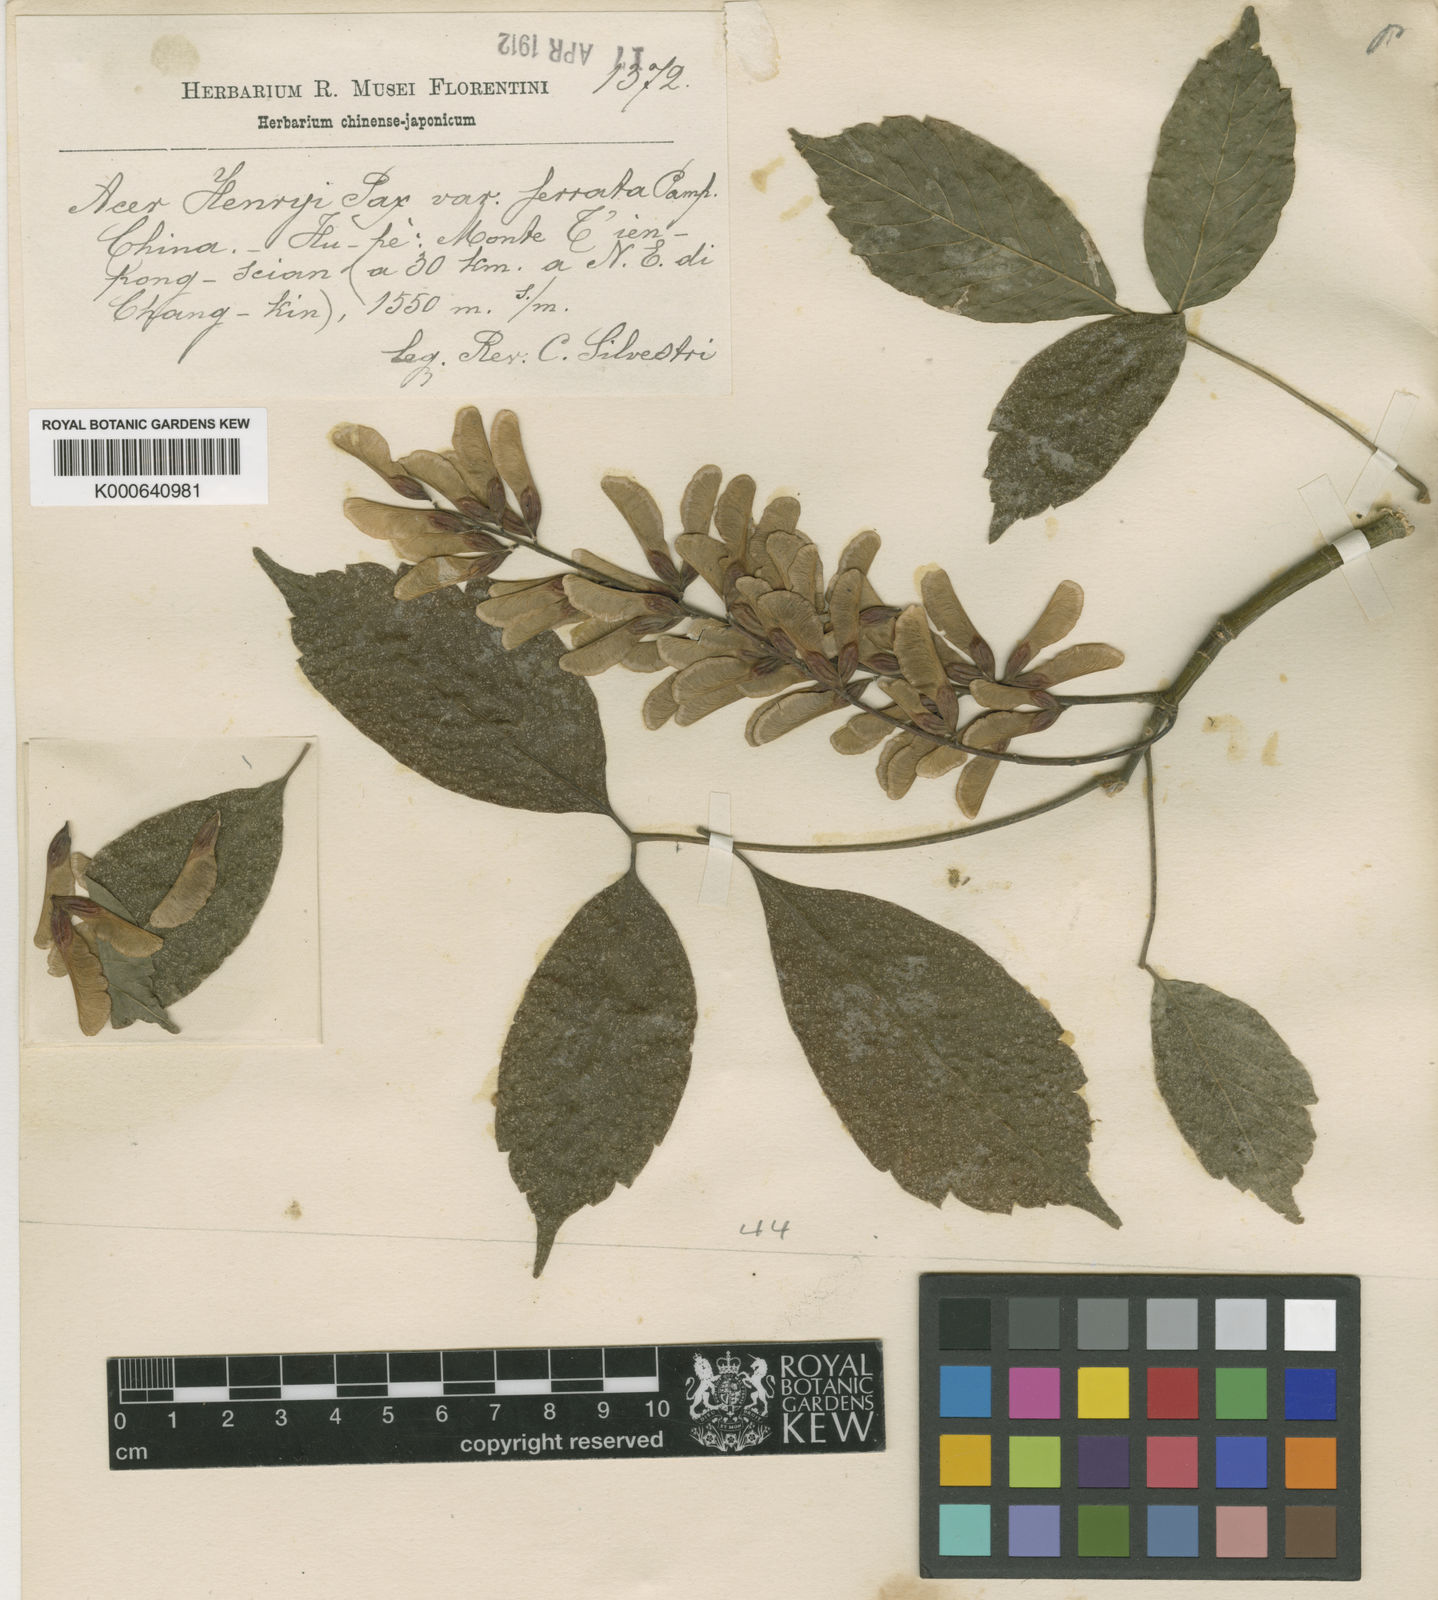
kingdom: Plantae
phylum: Tracheophyta
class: Magnoliopsida
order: Sapindales
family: Sapindaceae
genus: Acer
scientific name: Acer henryi
